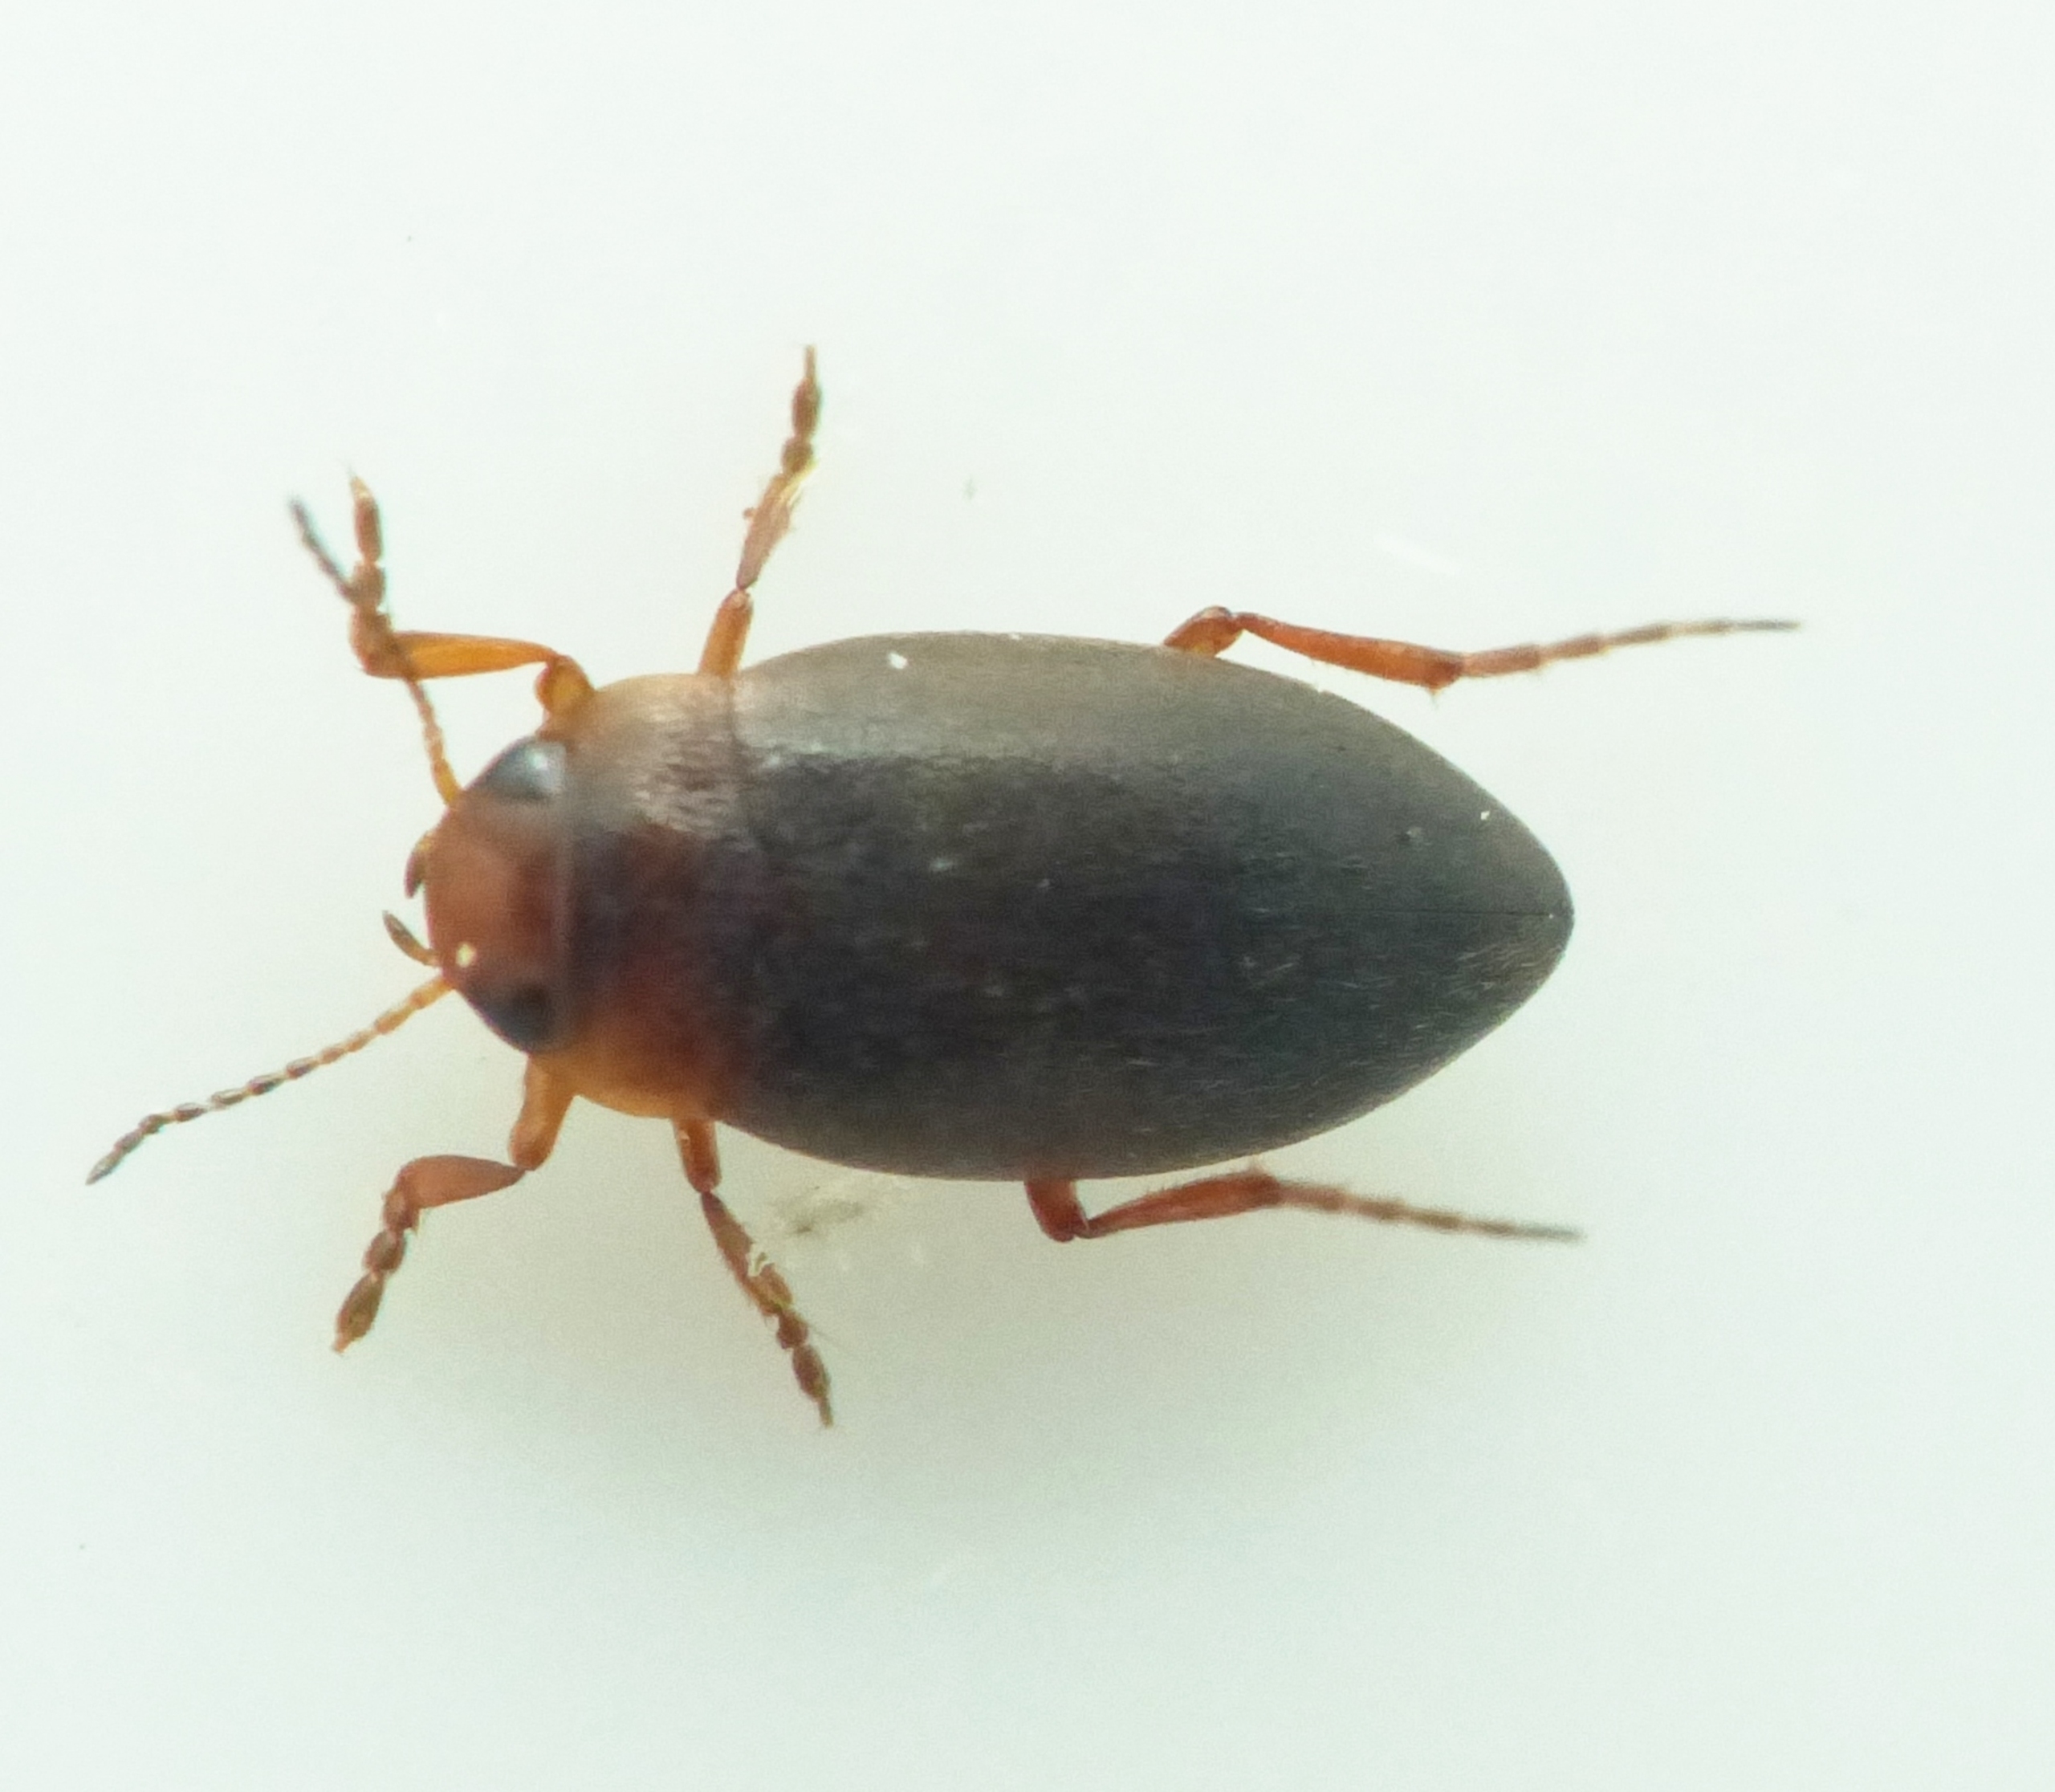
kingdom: Animalia
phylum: Arthropoda
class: Insecta
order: Coleoptera
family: Dytiscidae
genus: Hydroporus
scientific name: Hydroporus angustatus
